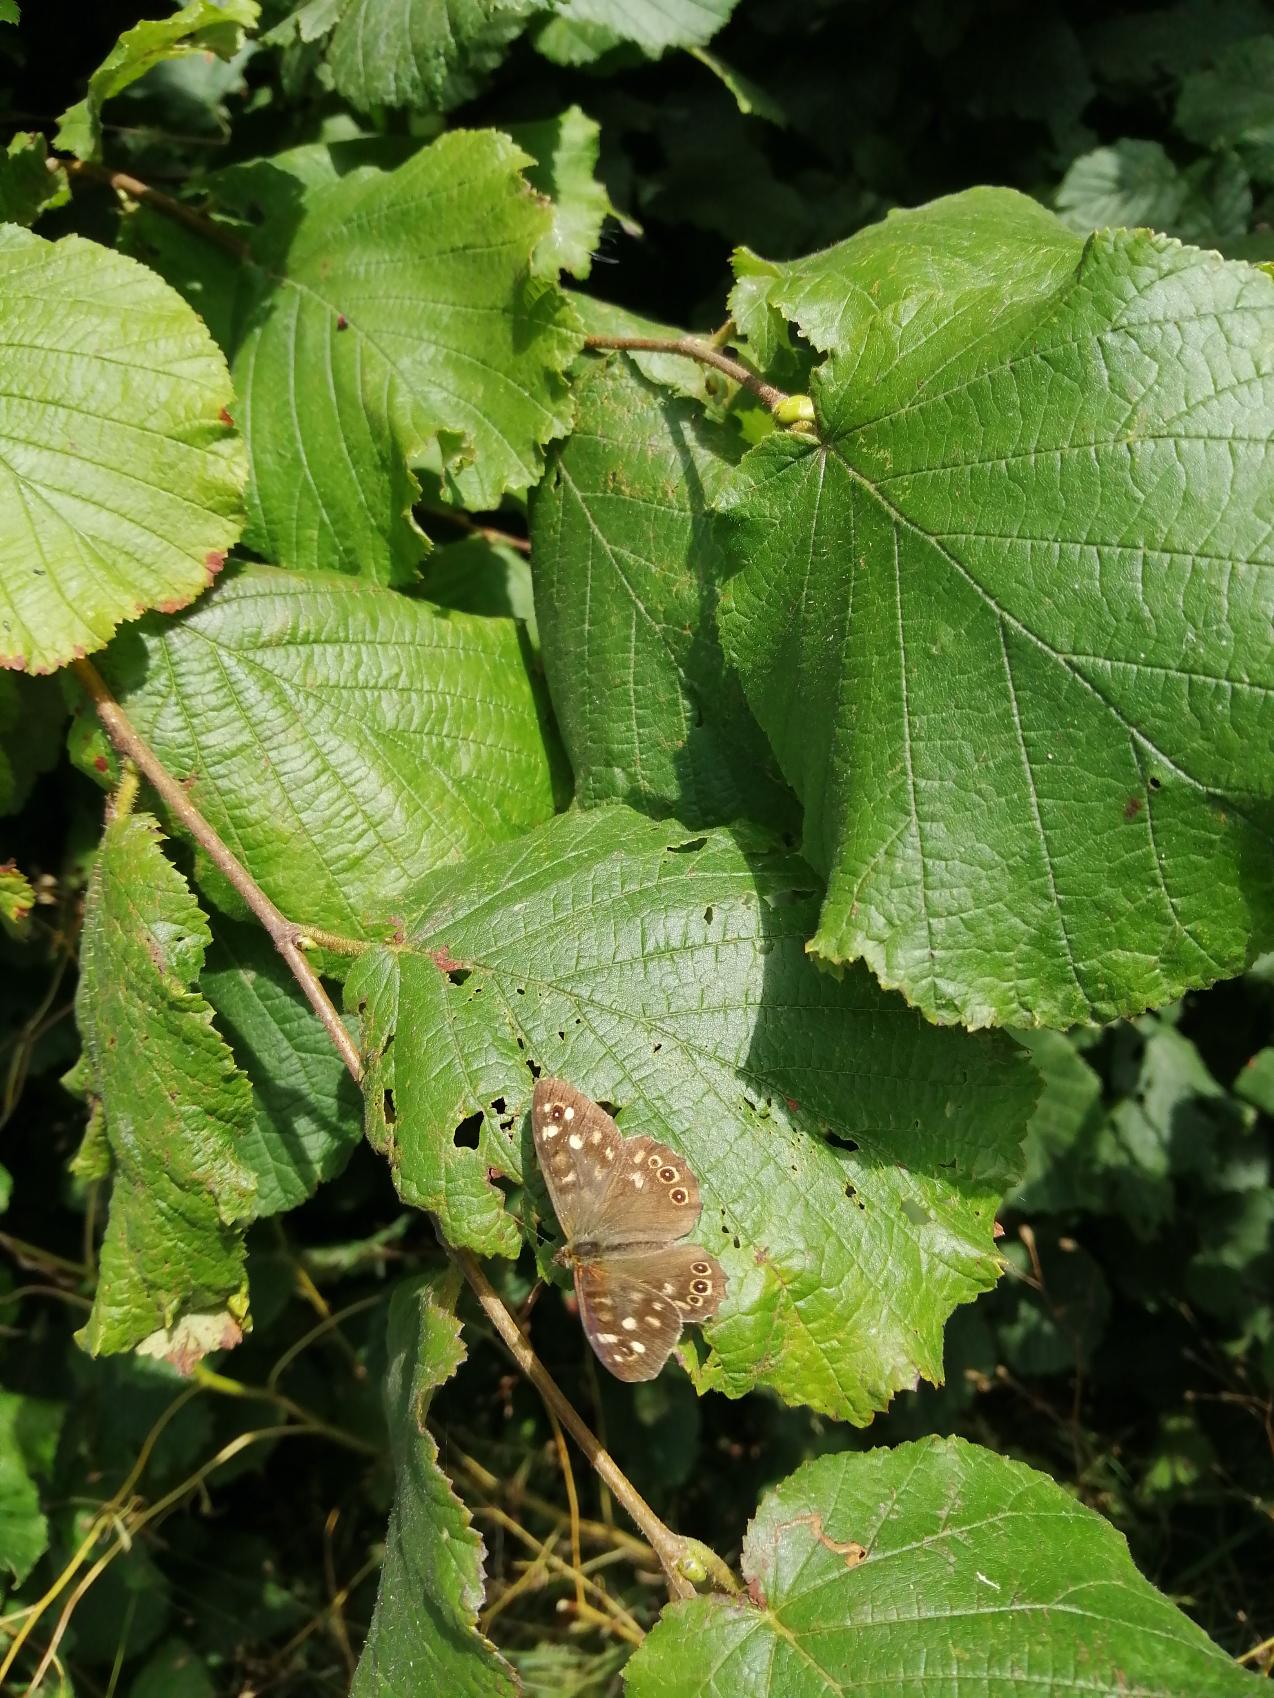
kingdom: Animalia
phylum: Arthropoda
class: Insecta
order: Lepidoptera
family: Nymphalidae
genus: Pararge
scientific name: Pararge aegeria
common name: Skovrandøje
